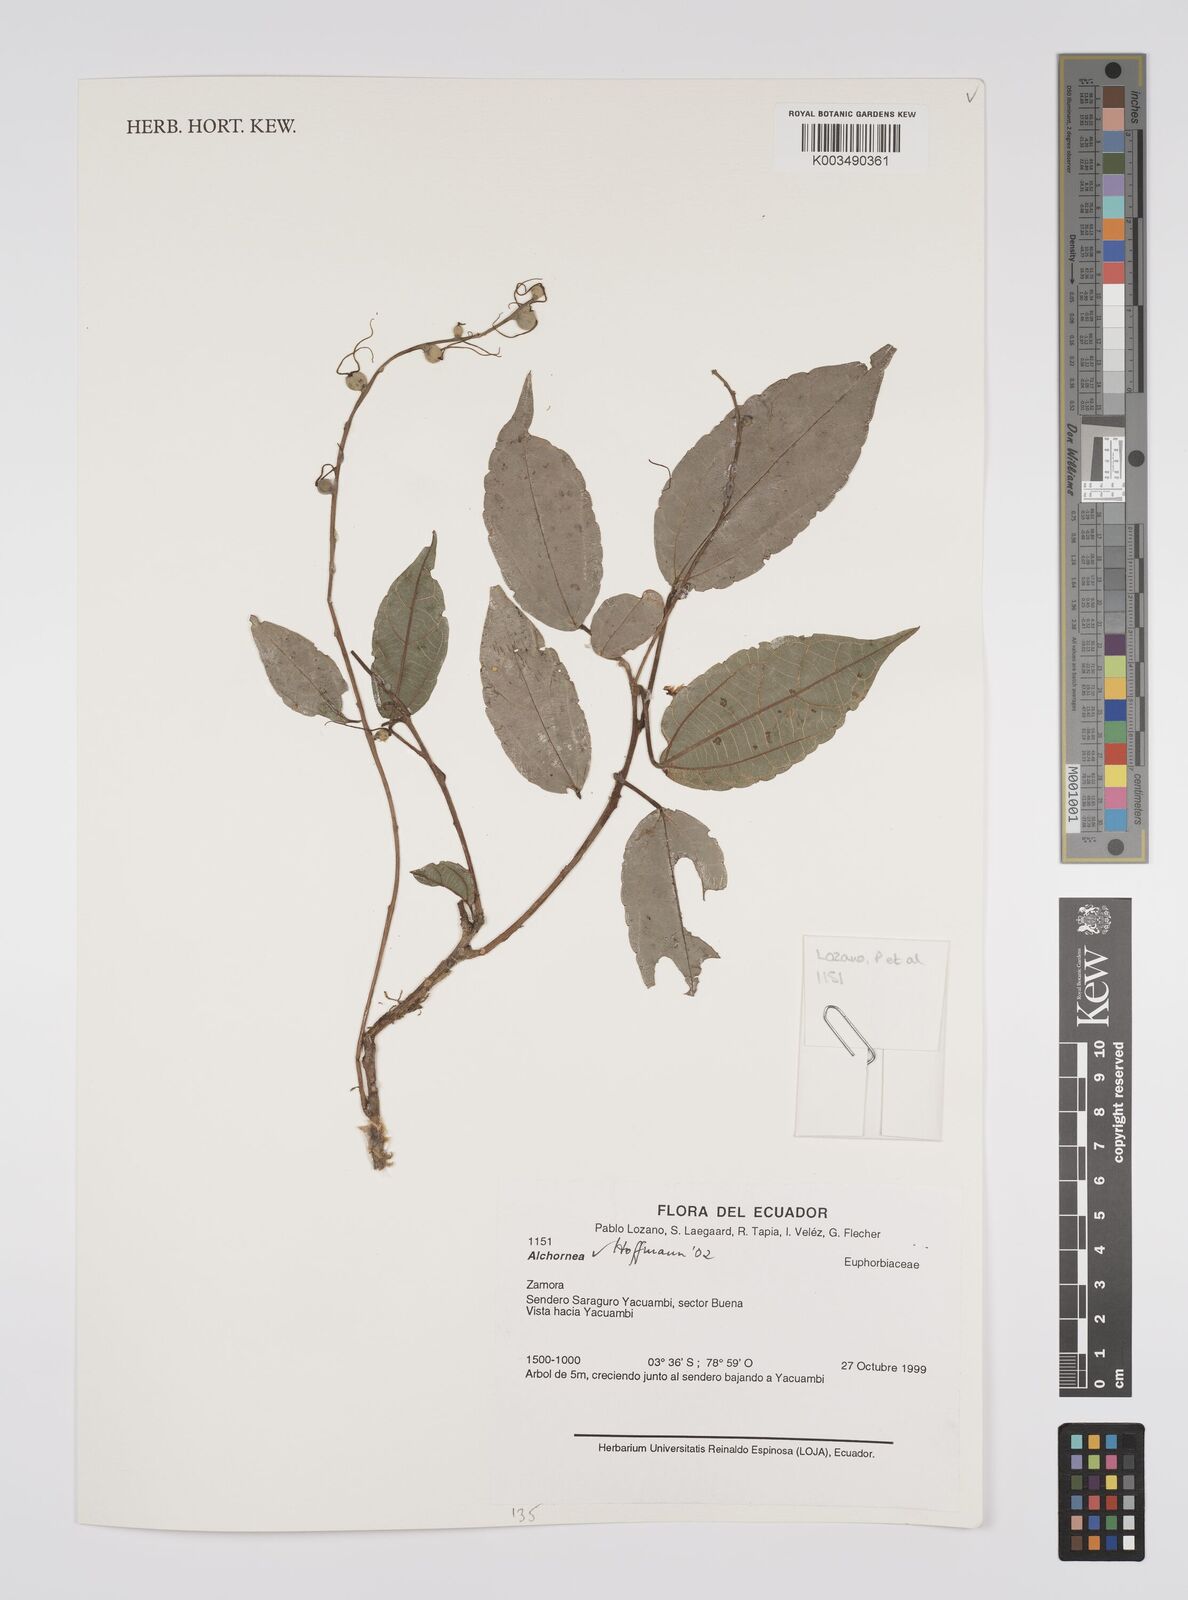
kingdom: Plantae
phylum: Tracheophyta
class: Magnoliopsida
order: Malpighiales
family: Euphorbiaceae
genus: Alchornea
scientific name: Alchornea
